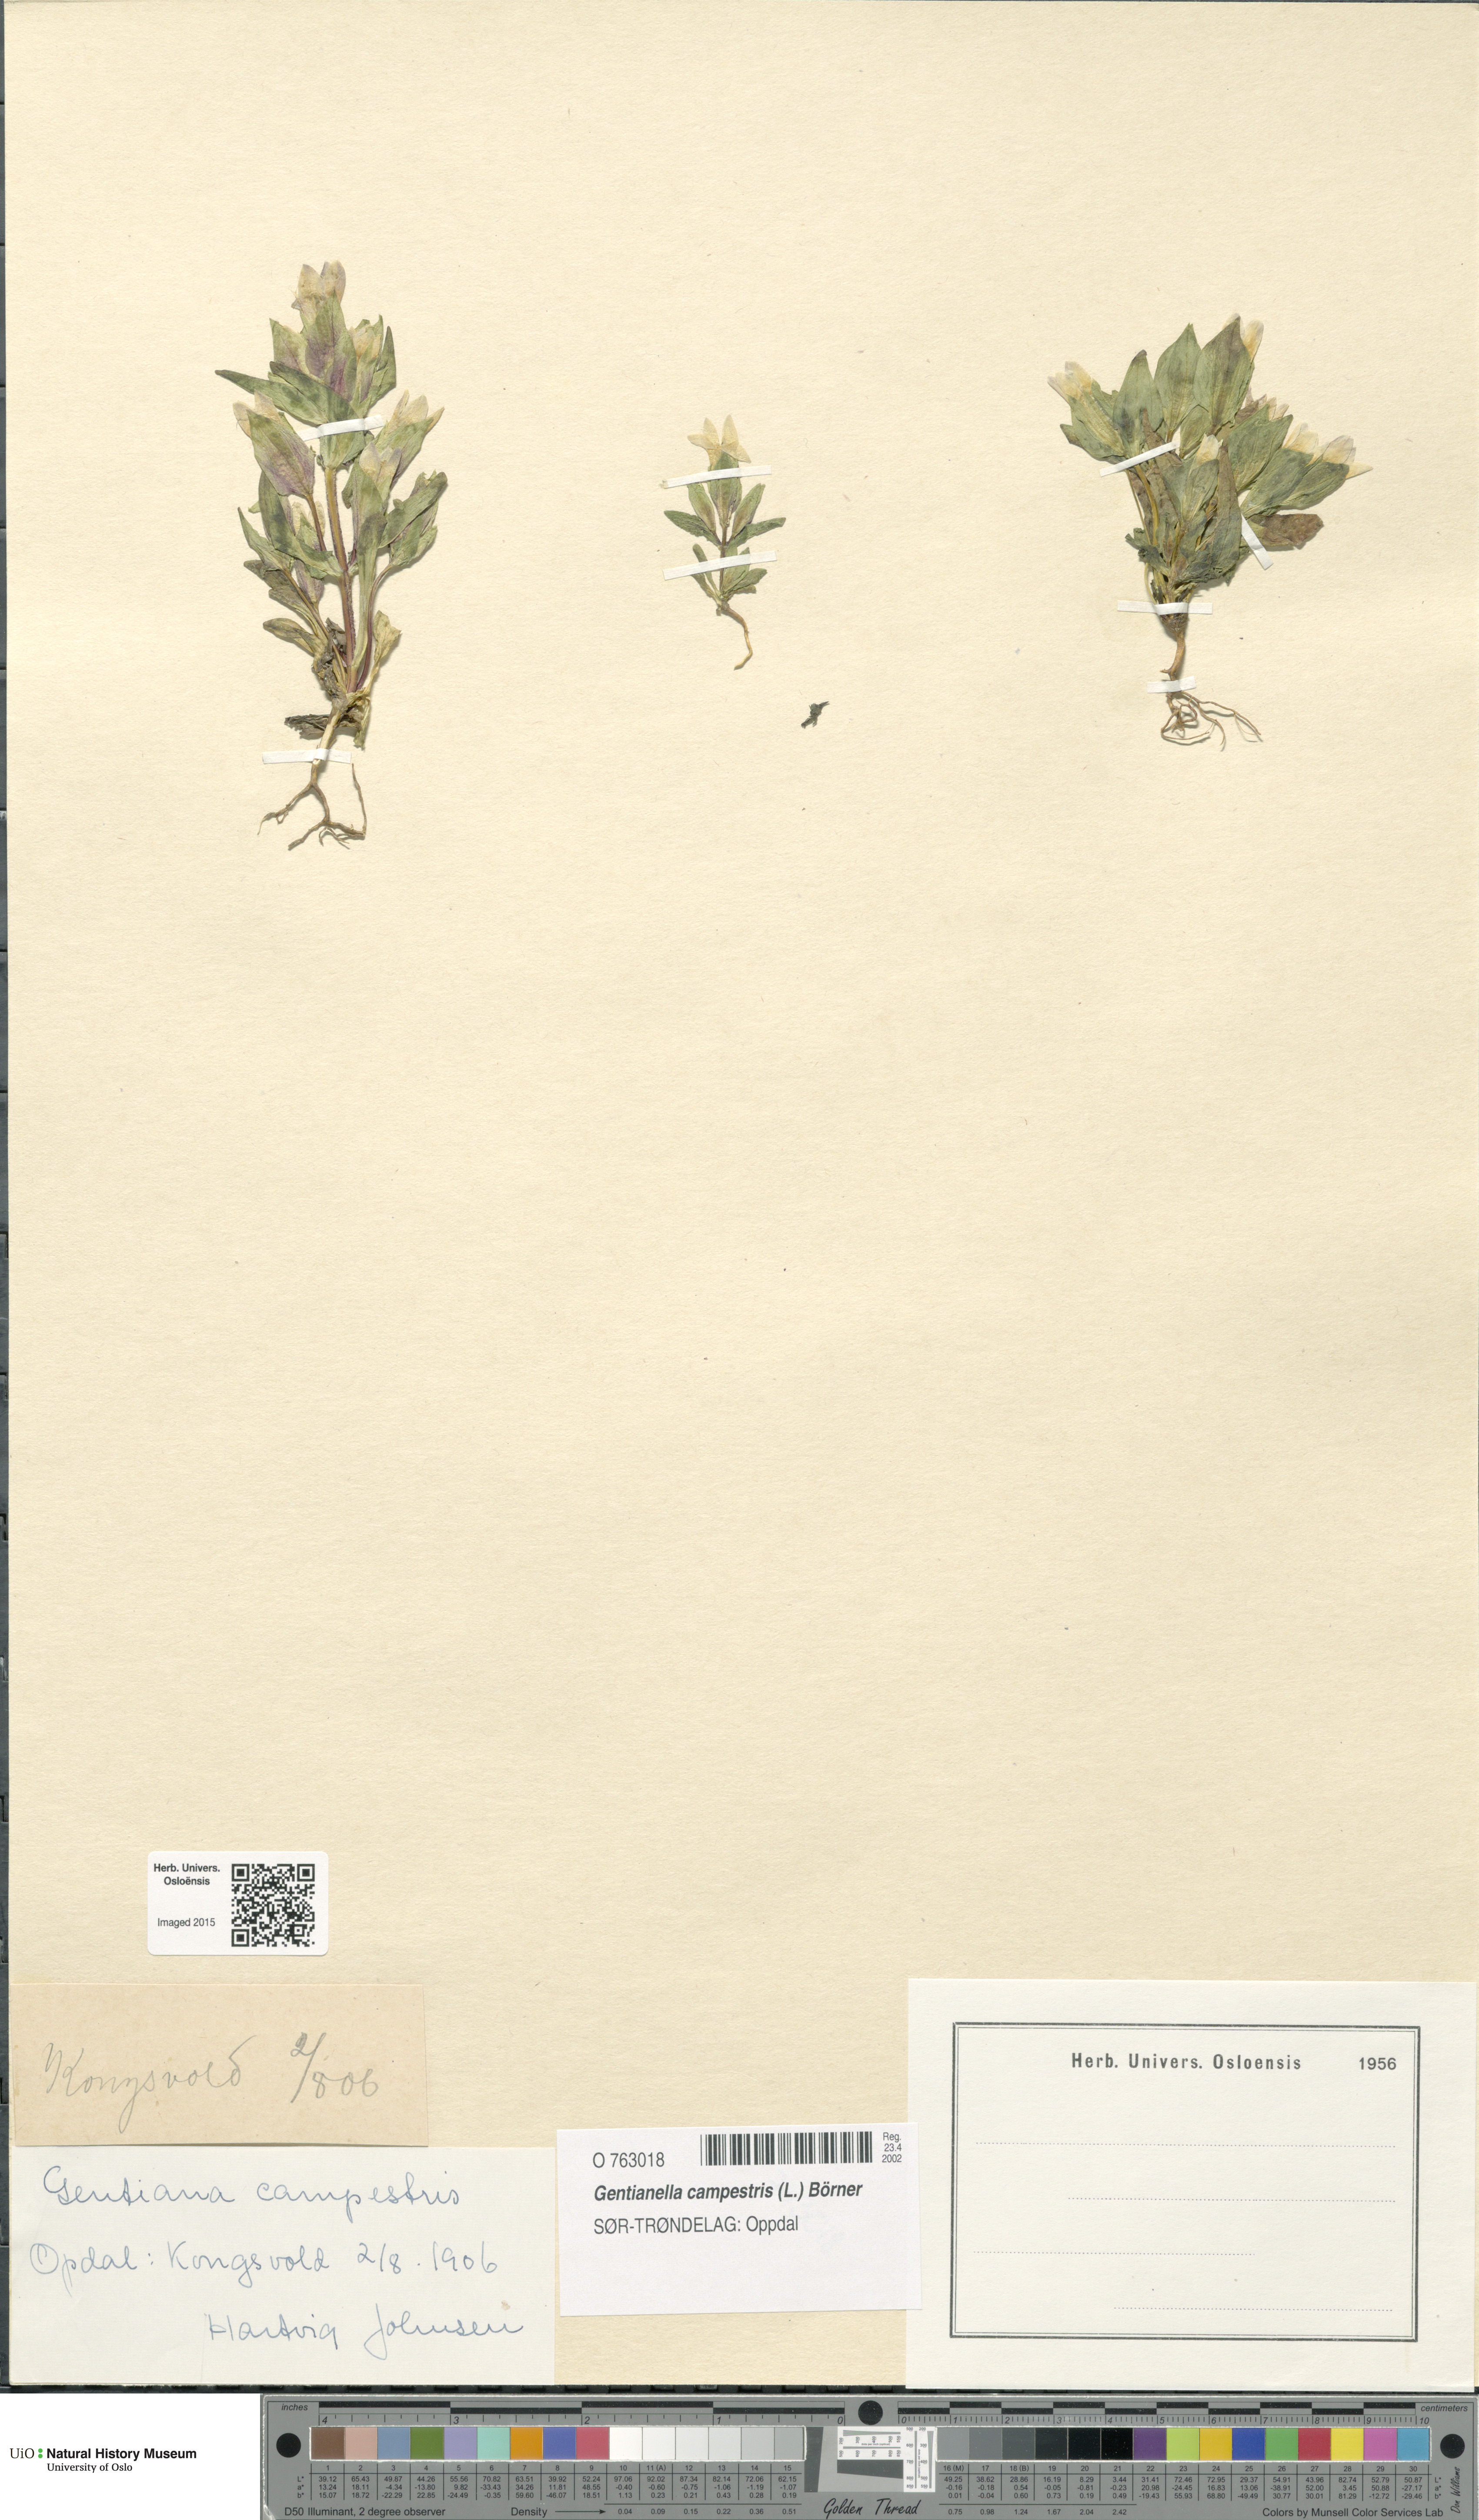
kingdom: Plantae
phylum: Tracheophyta
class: Magnoliopsida
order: Gentianales
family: Gentianaceae
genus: Gentianella
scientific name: Gentianella campestris
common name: Field gentian
